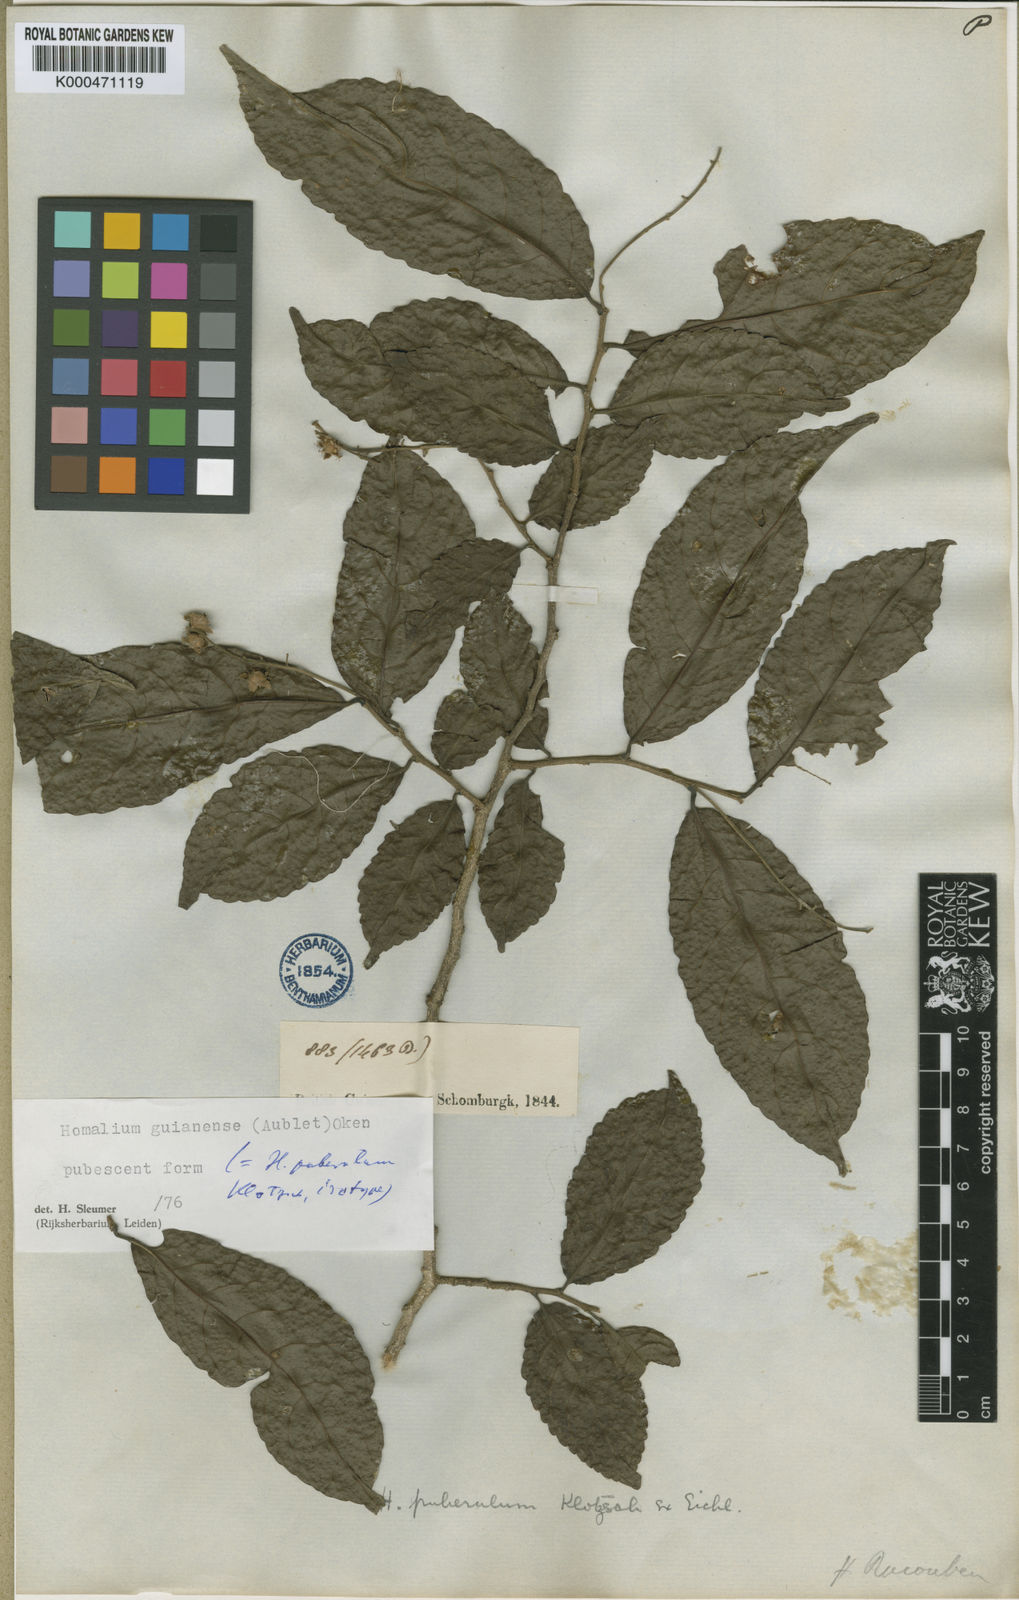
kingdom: Plantae
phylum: Tracheophyta
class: Magnoliopsida
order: Malpighiales
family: Salicaceae
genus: Homalium
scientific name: Homalium guianense
